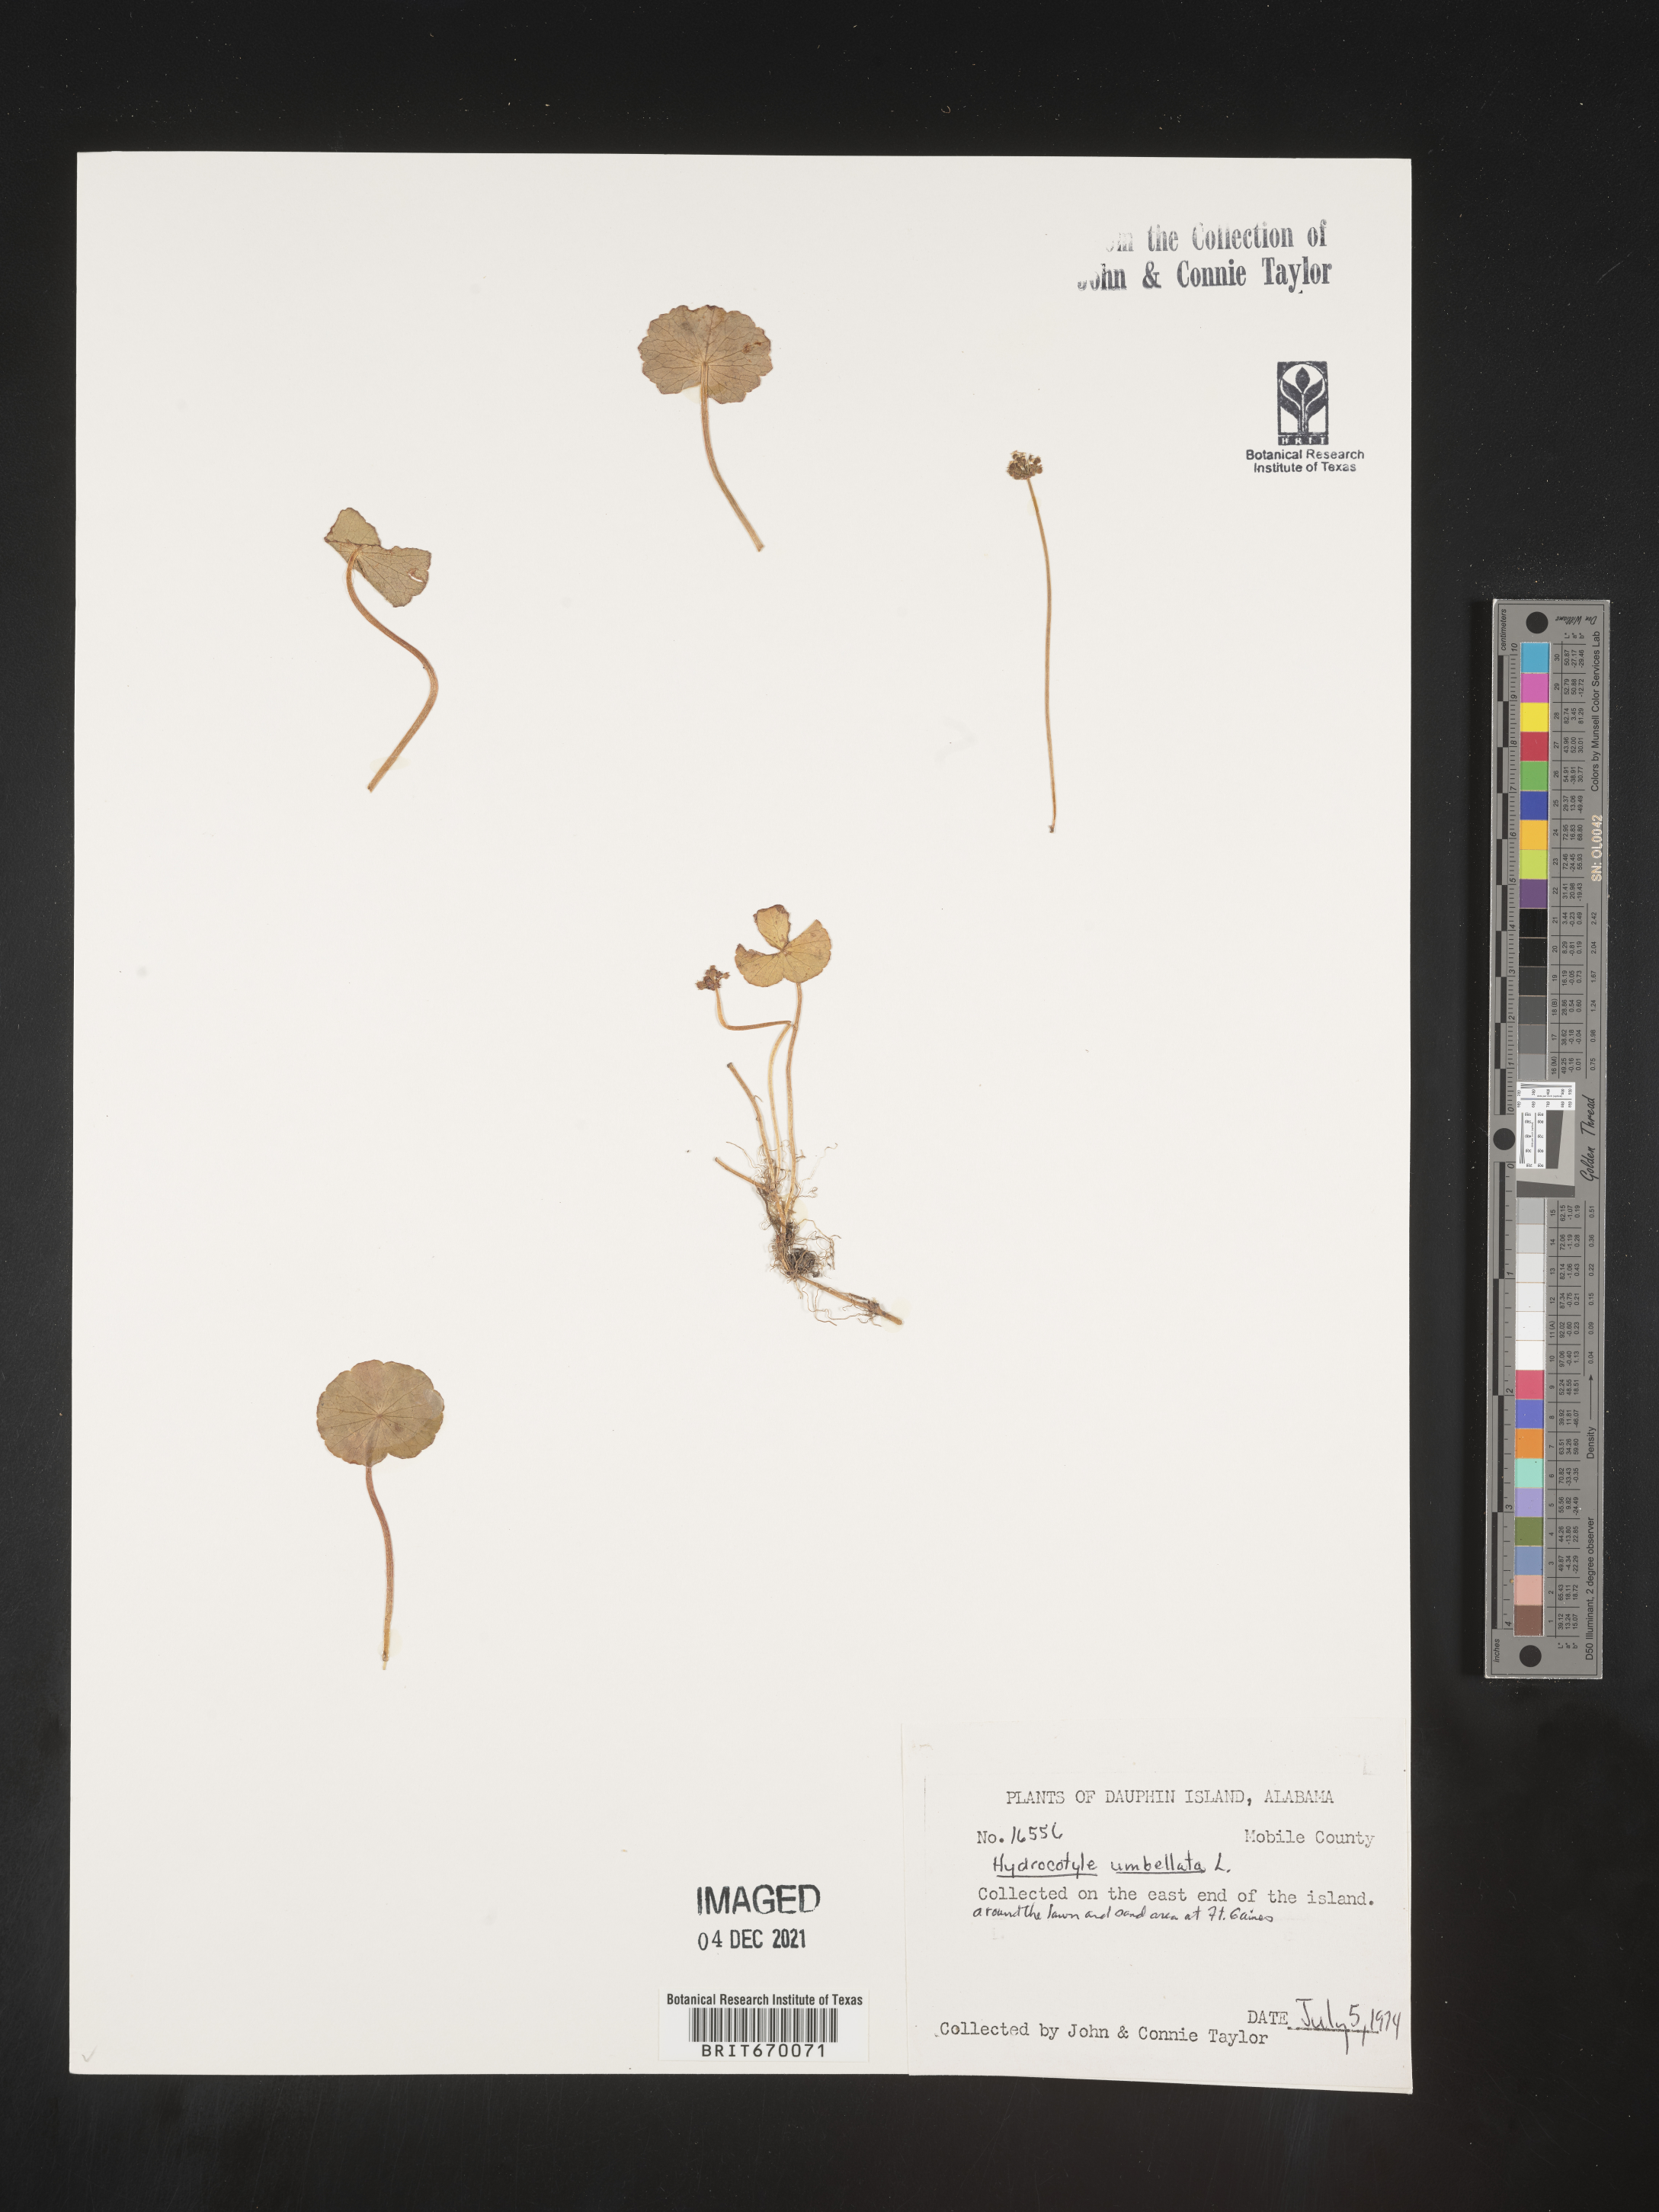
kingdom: Plantae
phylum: Tracheophyta
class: Magnoliopsida
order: Apiales
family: Araliaceae
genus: Hydrocotyle
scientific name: Hydrocotyle umbellata
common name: Water pennywort
